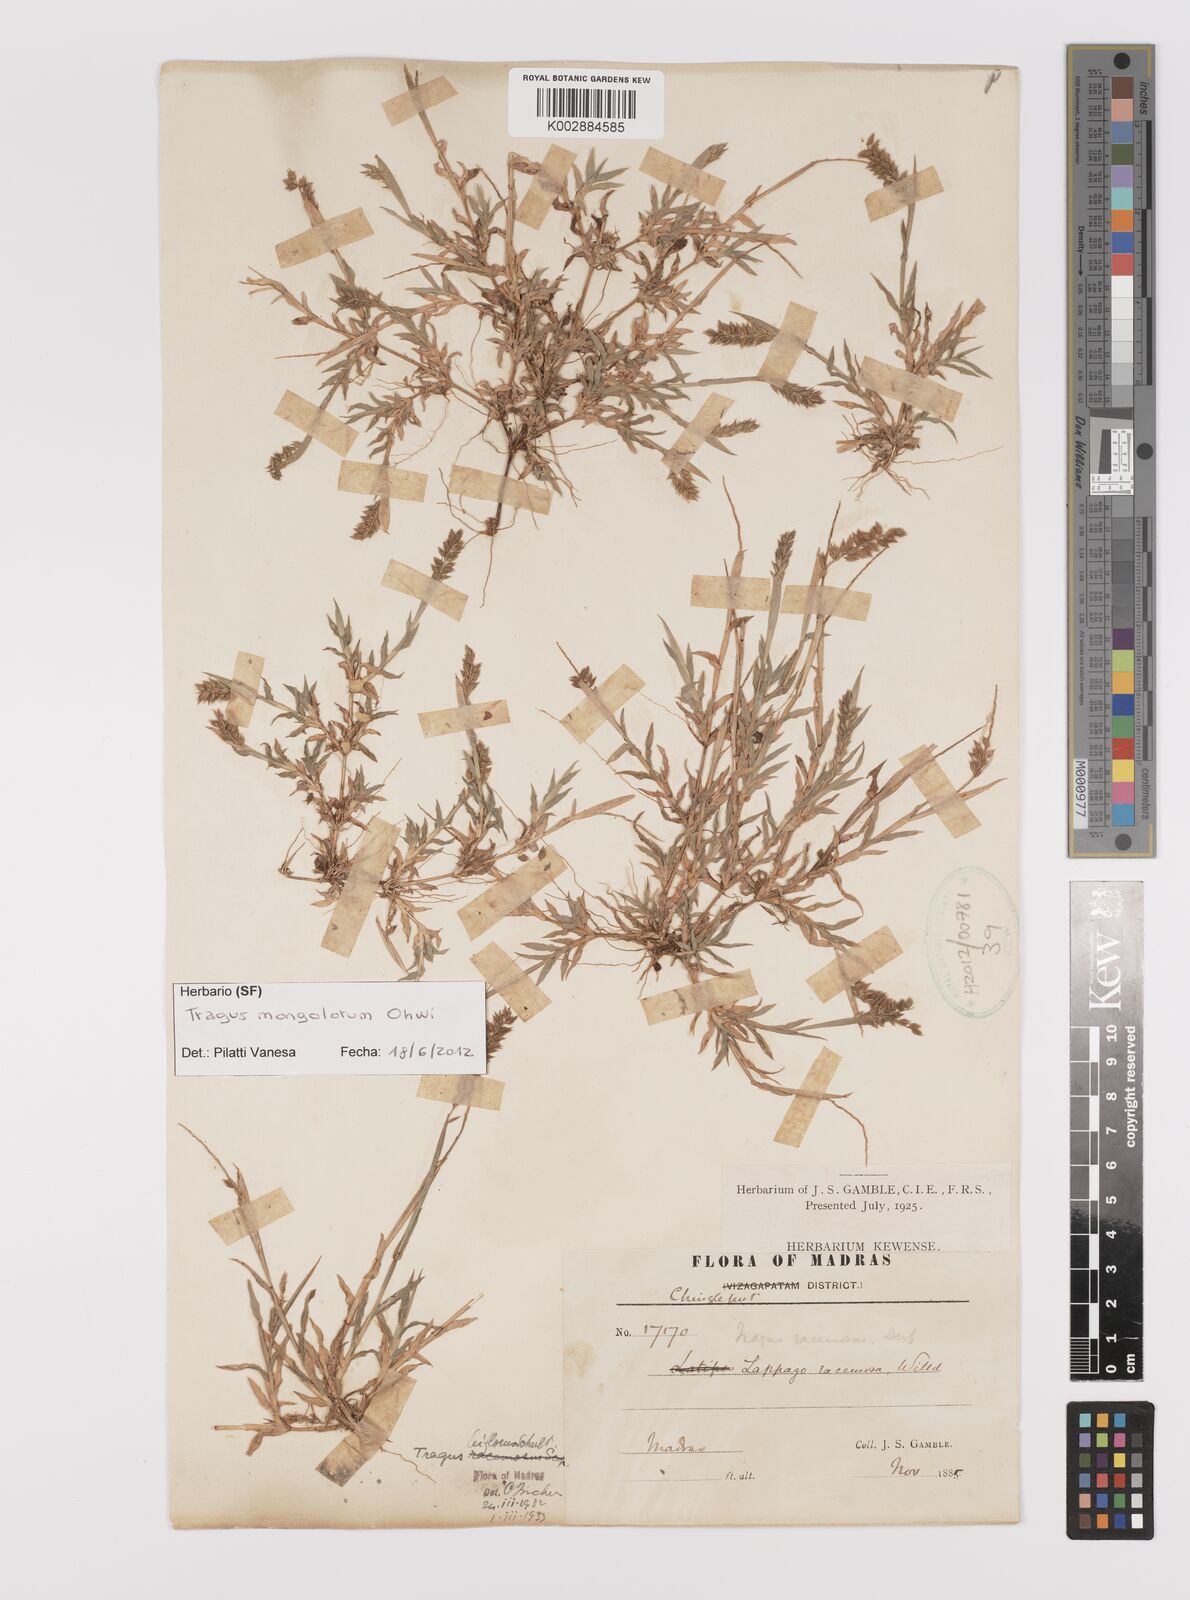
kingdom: Plantae
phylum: Tracheophyta
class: Liliopsida
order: Poales
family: Poaceae
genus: Tragus
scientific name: Tragus mongolorum
